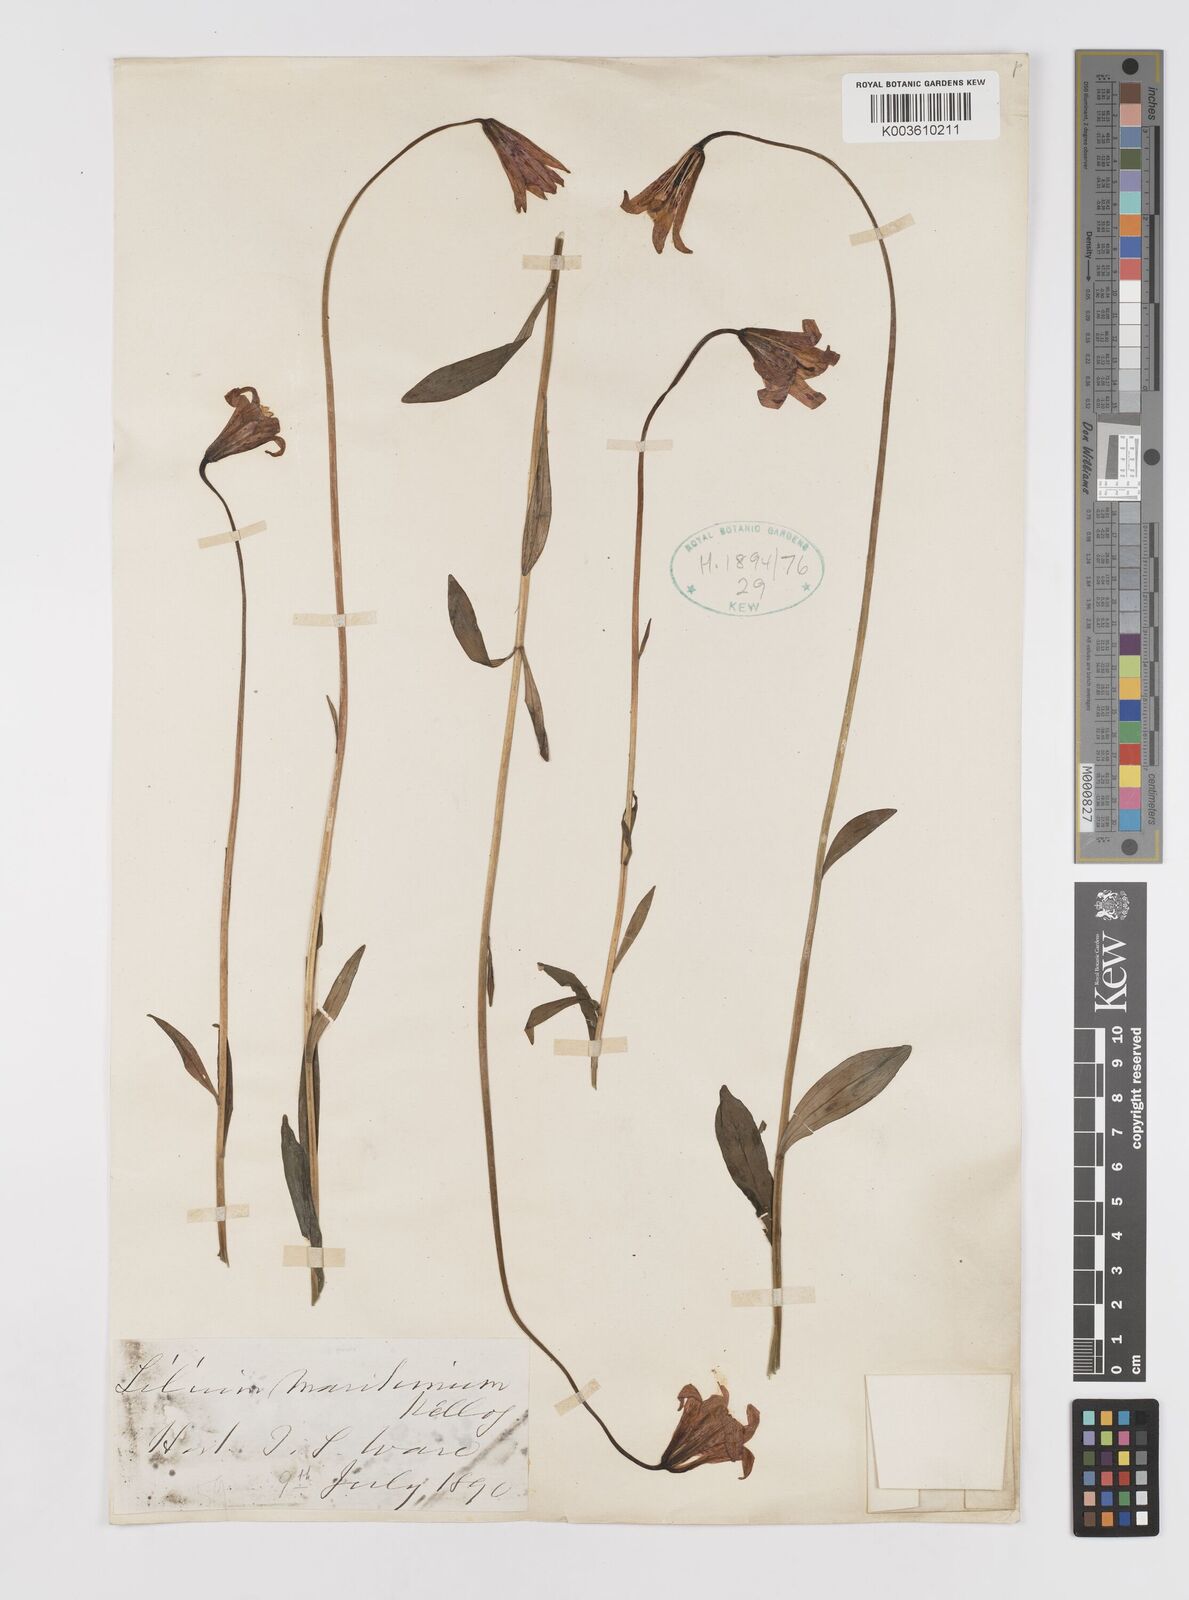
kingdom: Plantae
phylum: Tracheophyta
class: Liliopsida
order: Liliales
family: Liliaceae
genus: Lilium
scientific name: Lilium maritimum
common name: Coastal lily
